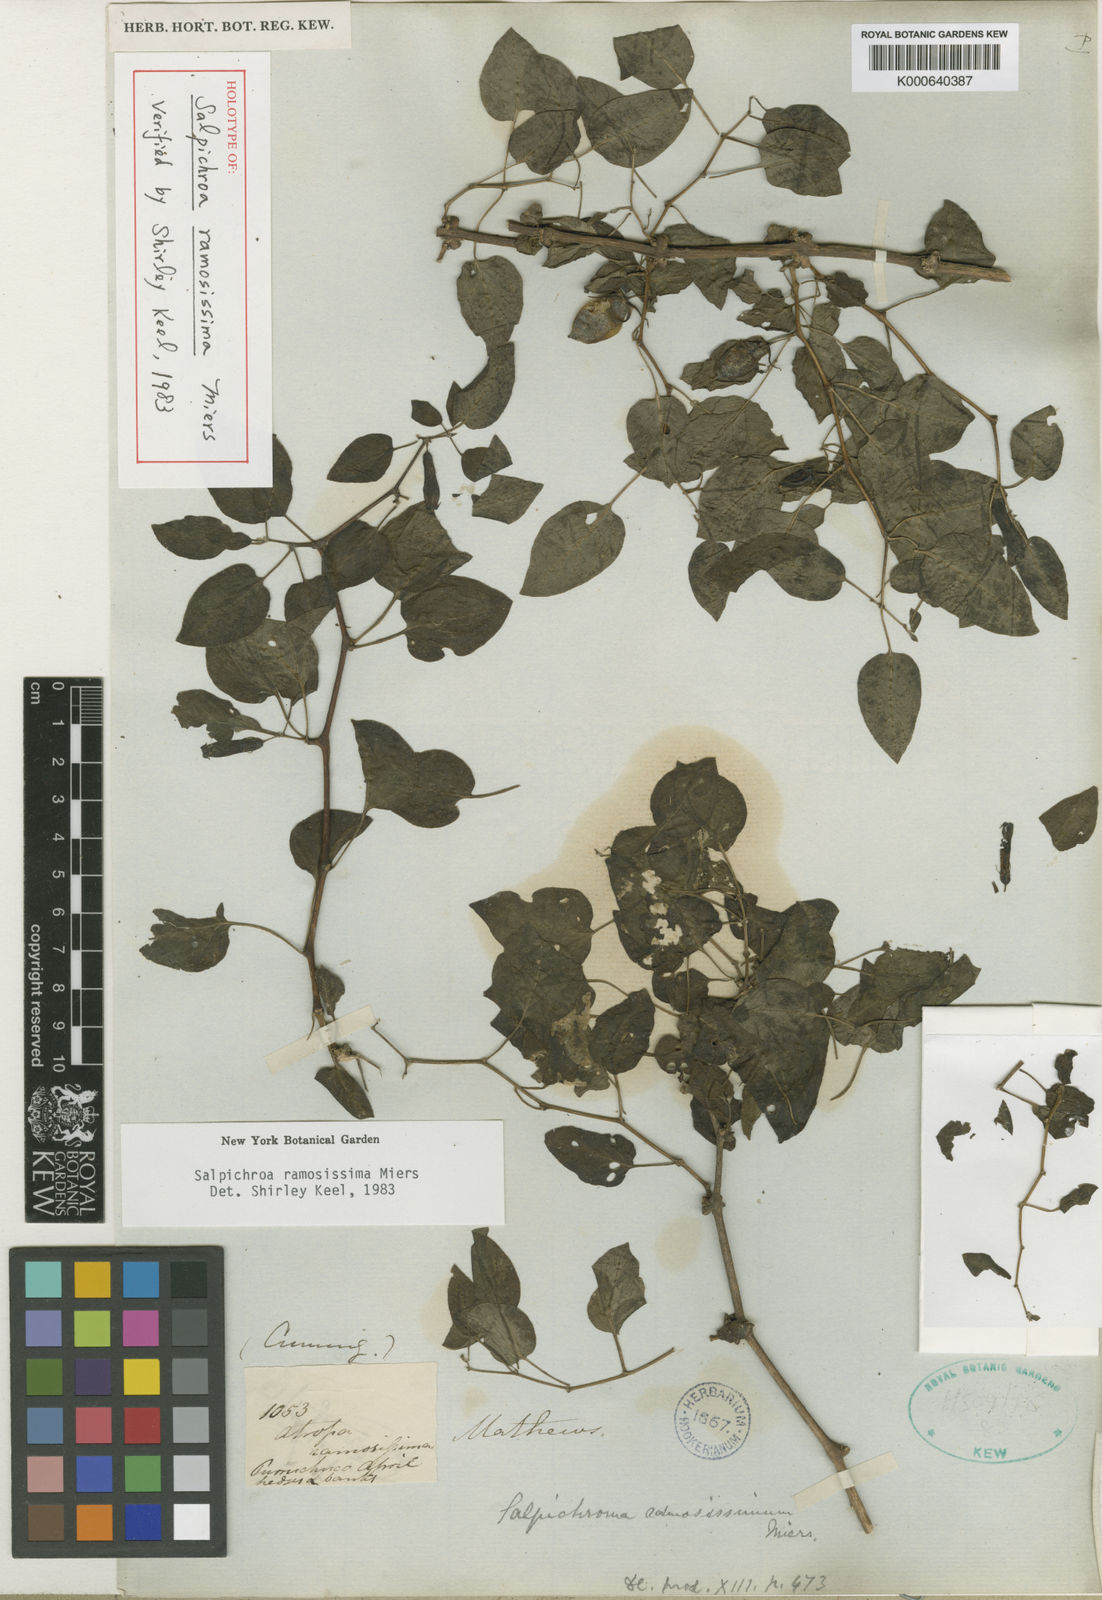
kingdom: Plantae
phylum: Tracheophyta
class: Magnoliopsida
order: Solanales
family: Solanaceae
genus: Salpichroa
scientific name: Salpichroa ramosissima
